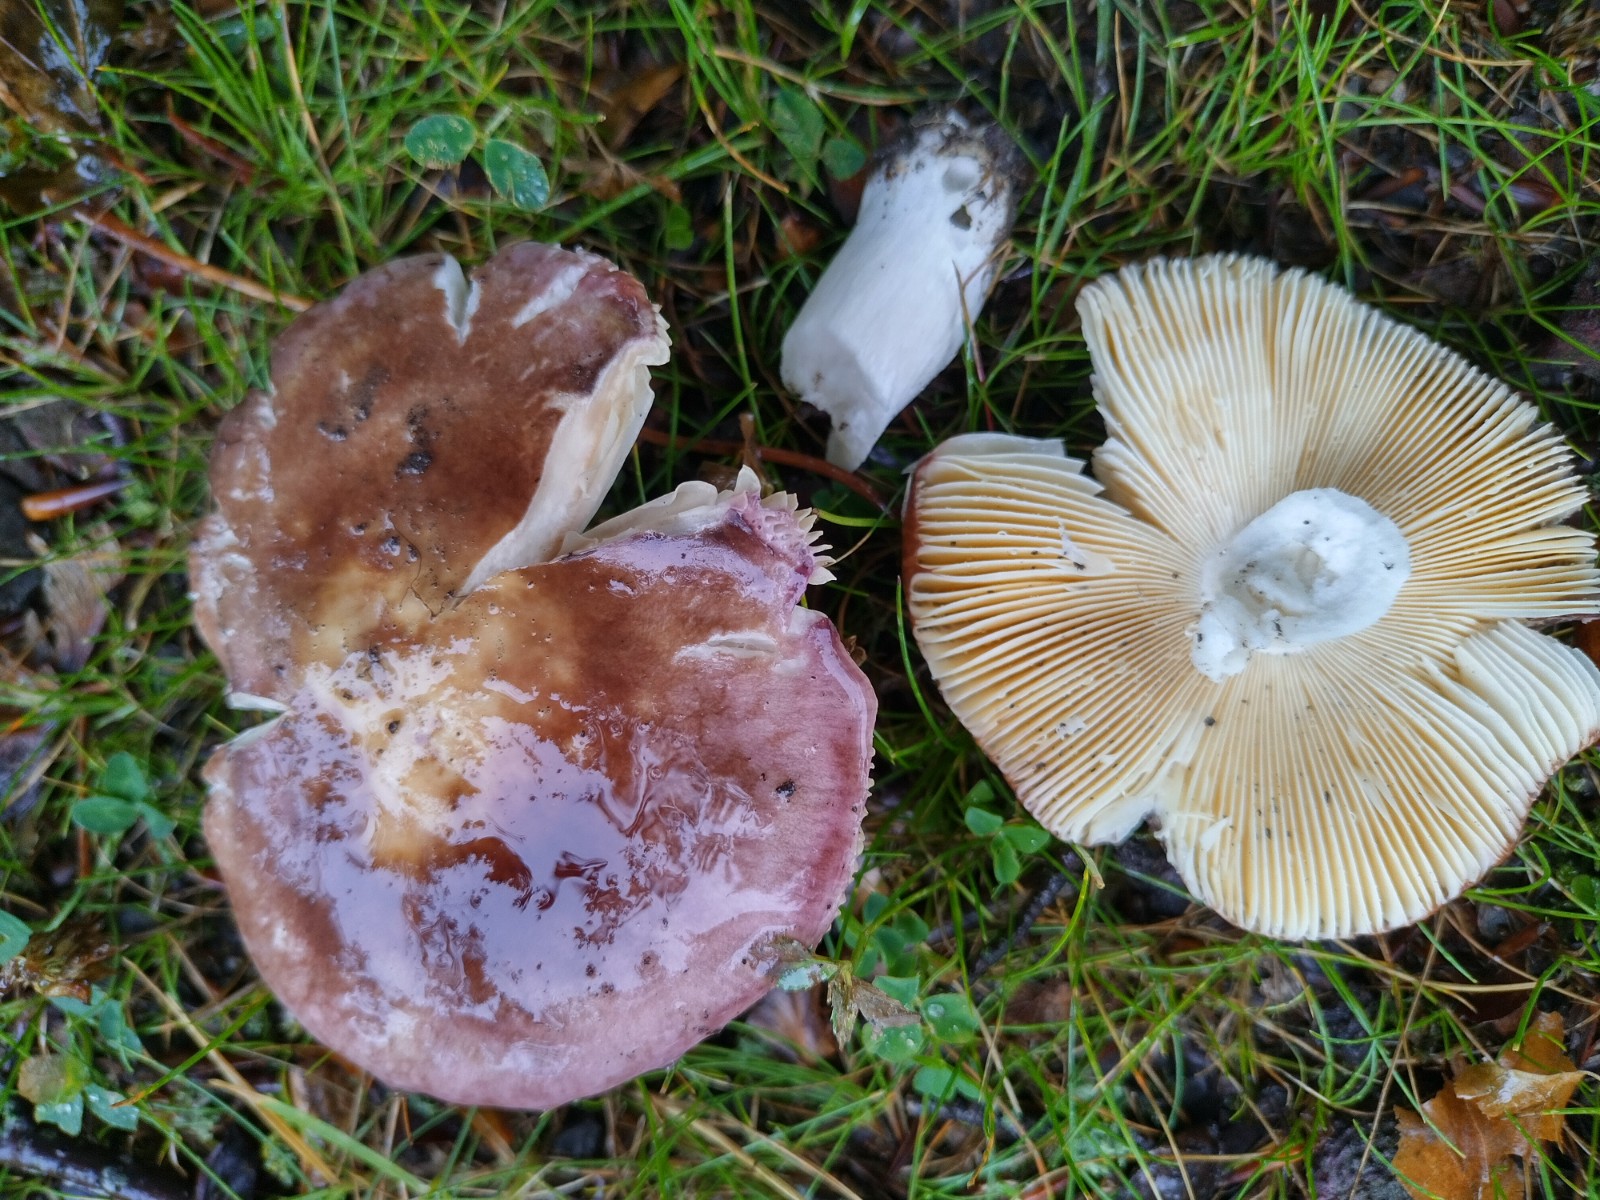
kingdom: Fungi
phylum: Basidiomycota
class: Agaricomycetes
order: Russulales
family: Russulaceae
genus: Russula
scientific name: Russula carpini
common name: avnbøg-skørhat
